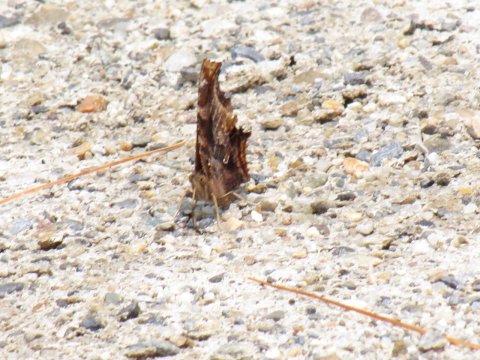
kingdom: Animalia
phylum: Arthropoda
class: Insecta
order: Lepidoptera
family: Nymphalidae
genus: Polygonia
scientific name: Polygonia comma
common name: Eastern Comma
